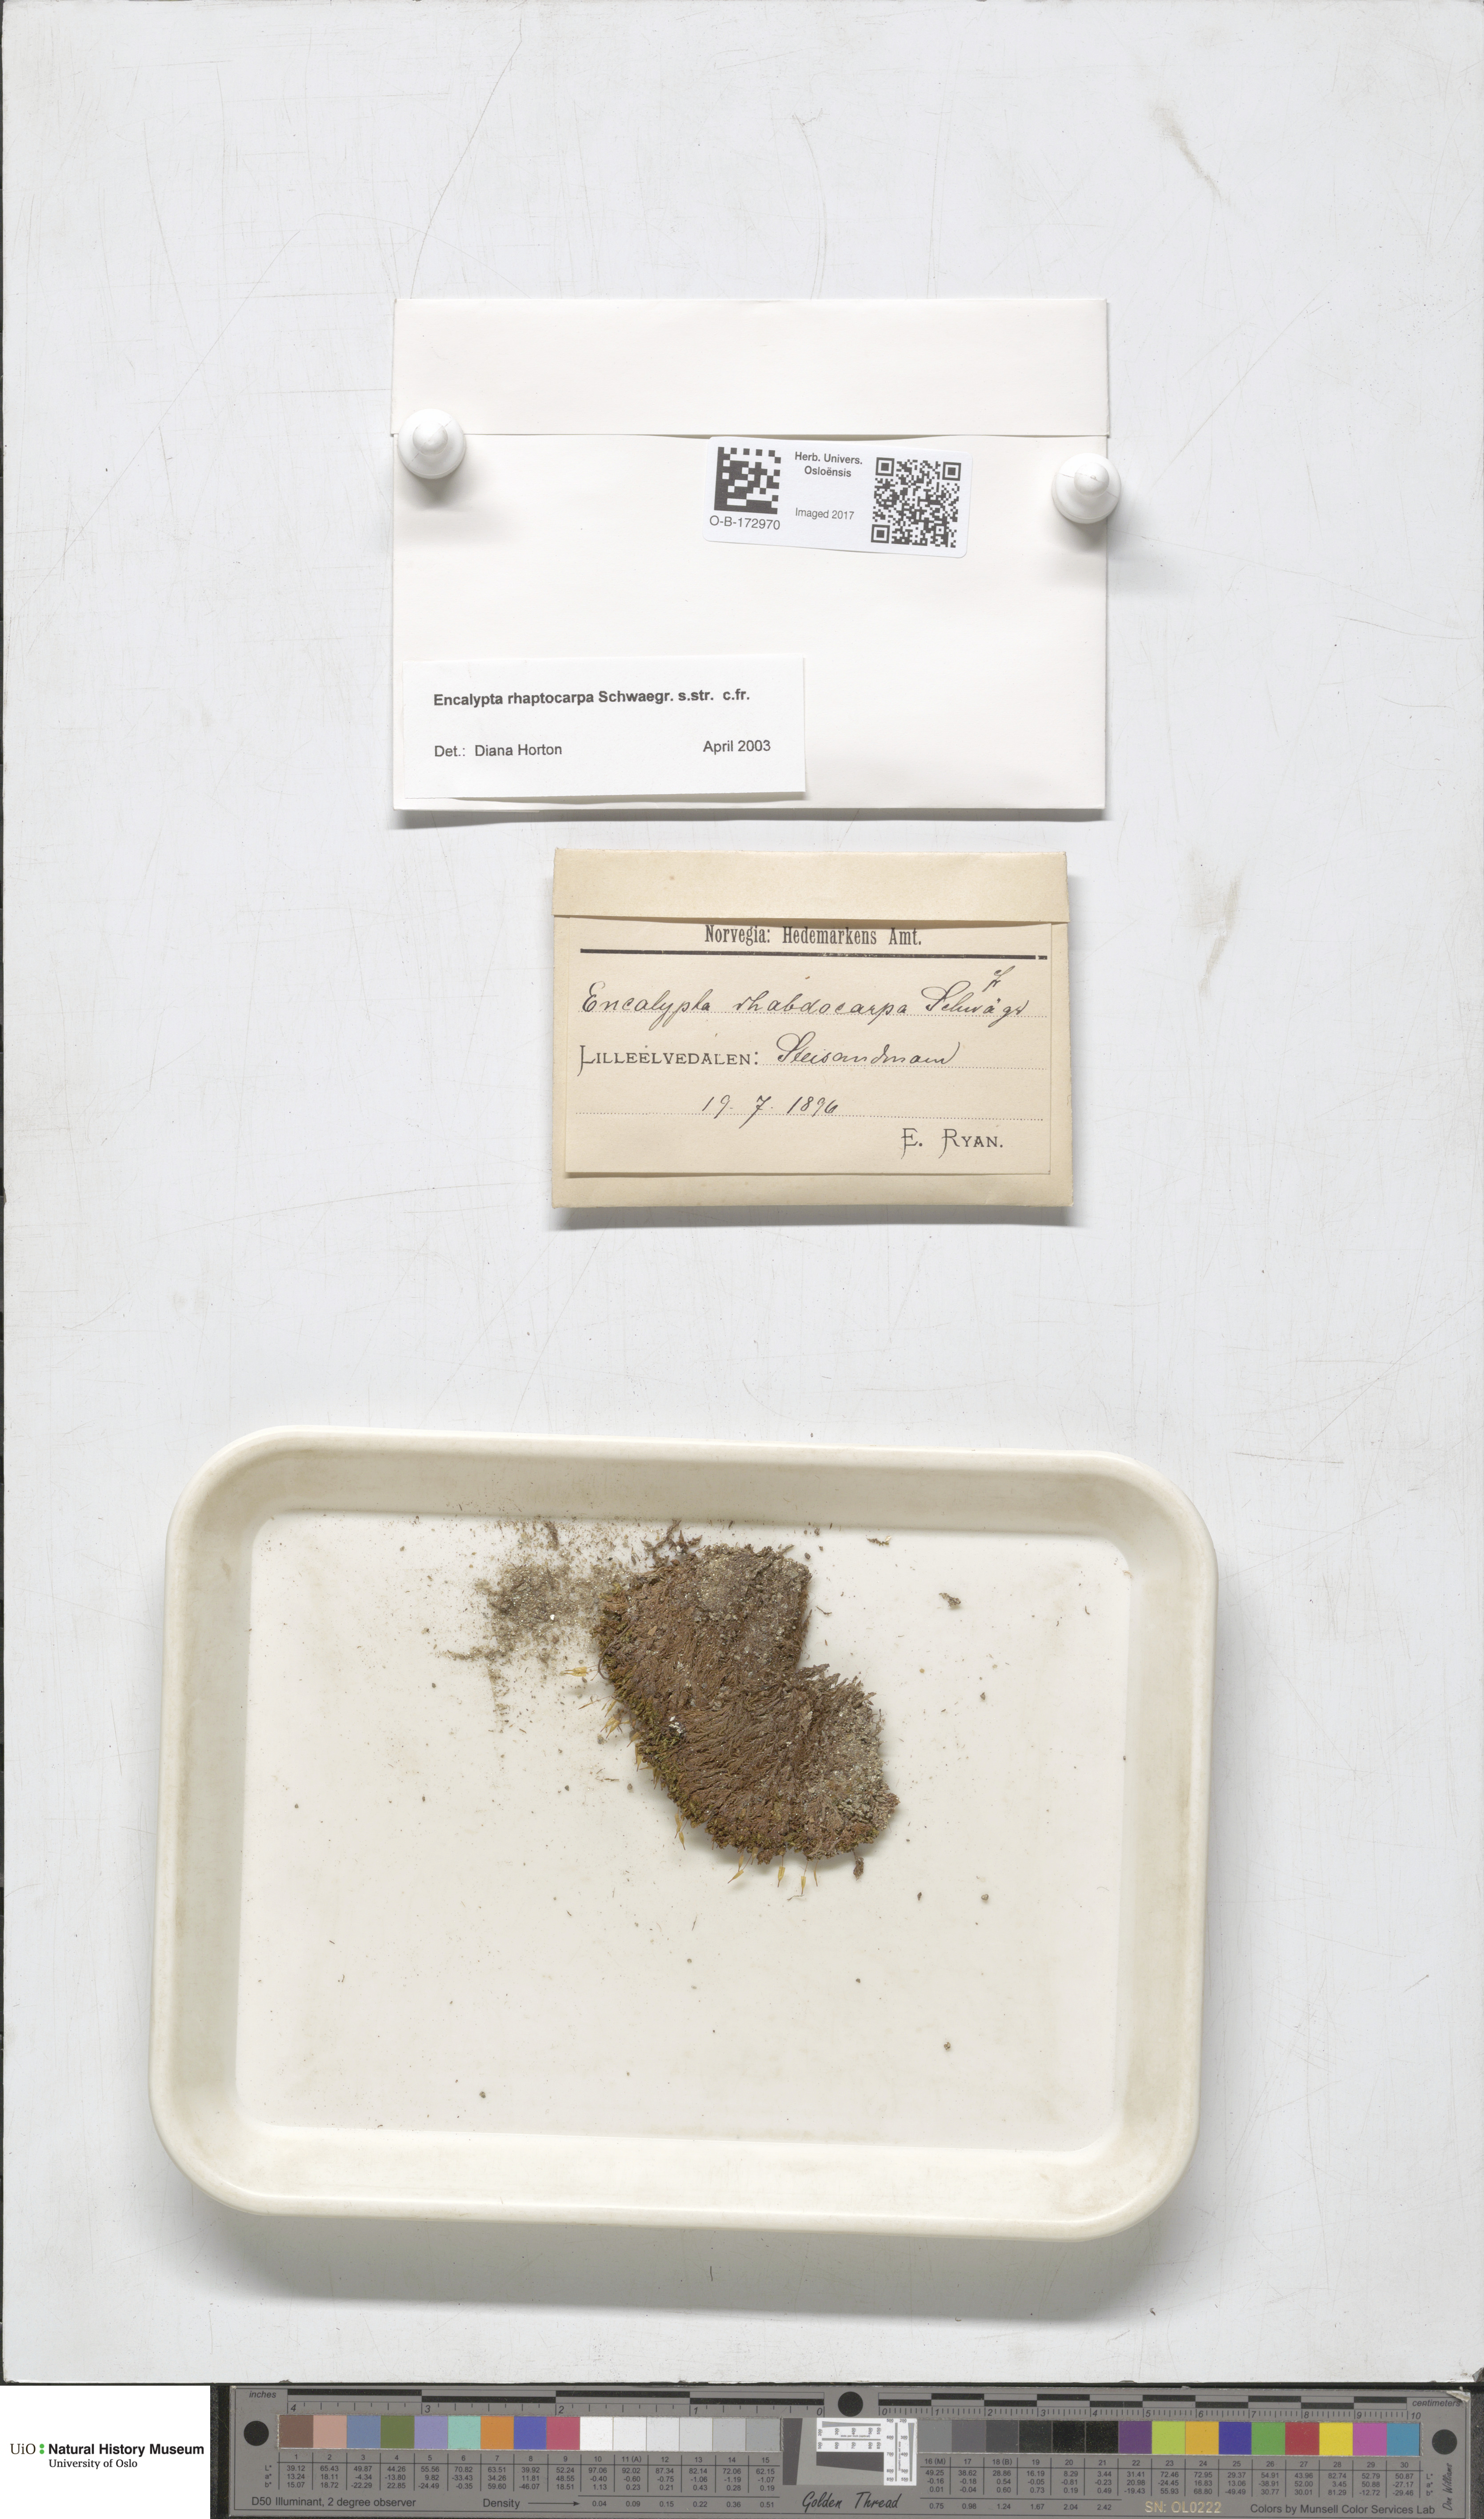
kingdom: Plantae
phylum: Bryophyta
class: Bryopsida
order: Encalyptales
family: Encalyptaceae
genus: Encalypta
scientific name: Encalypta rhaptocarpa
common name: Ribbed extinguisher moss
